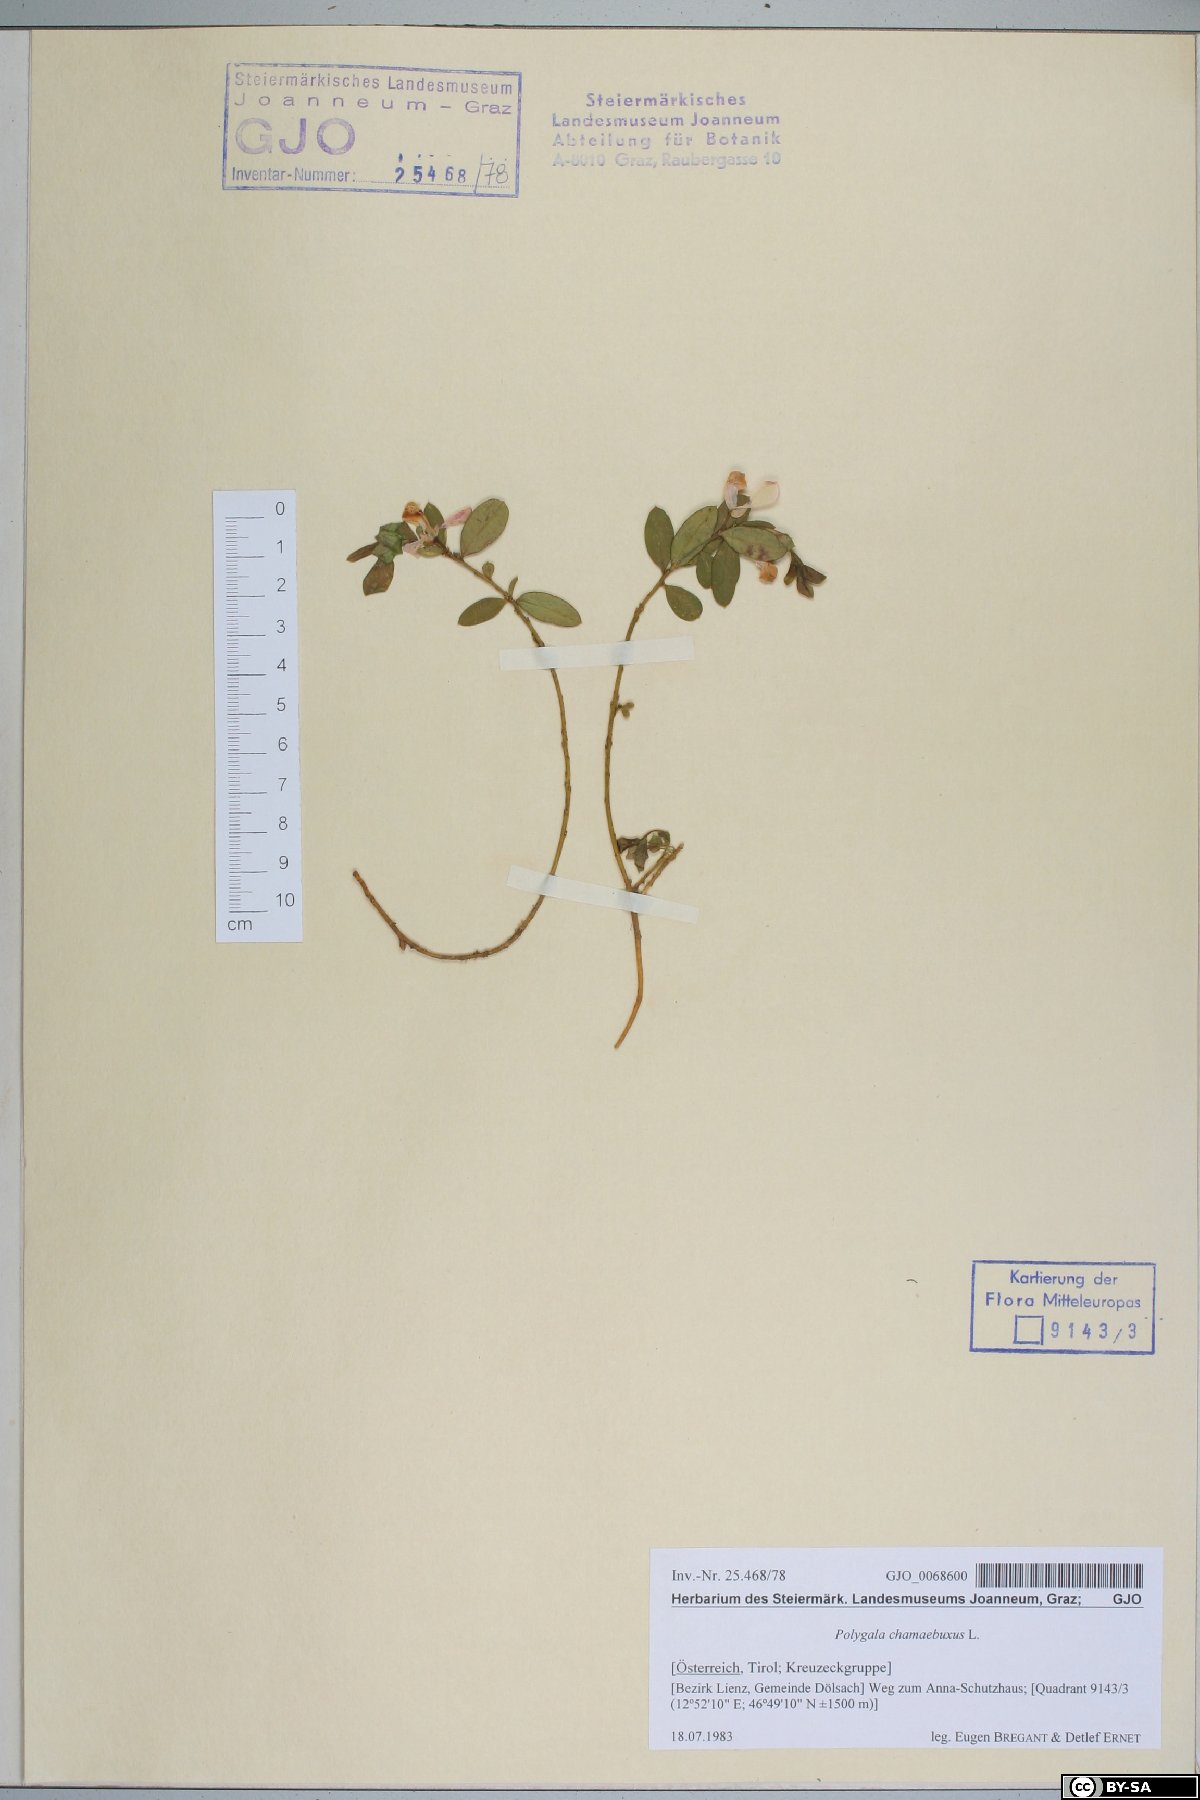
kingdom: Plantae
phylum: Tracheophyta
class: Magnoliopsida
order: Fabales
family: Polygalaceae
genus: Polygaloides
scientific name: Polygaloides chamaebuxus
